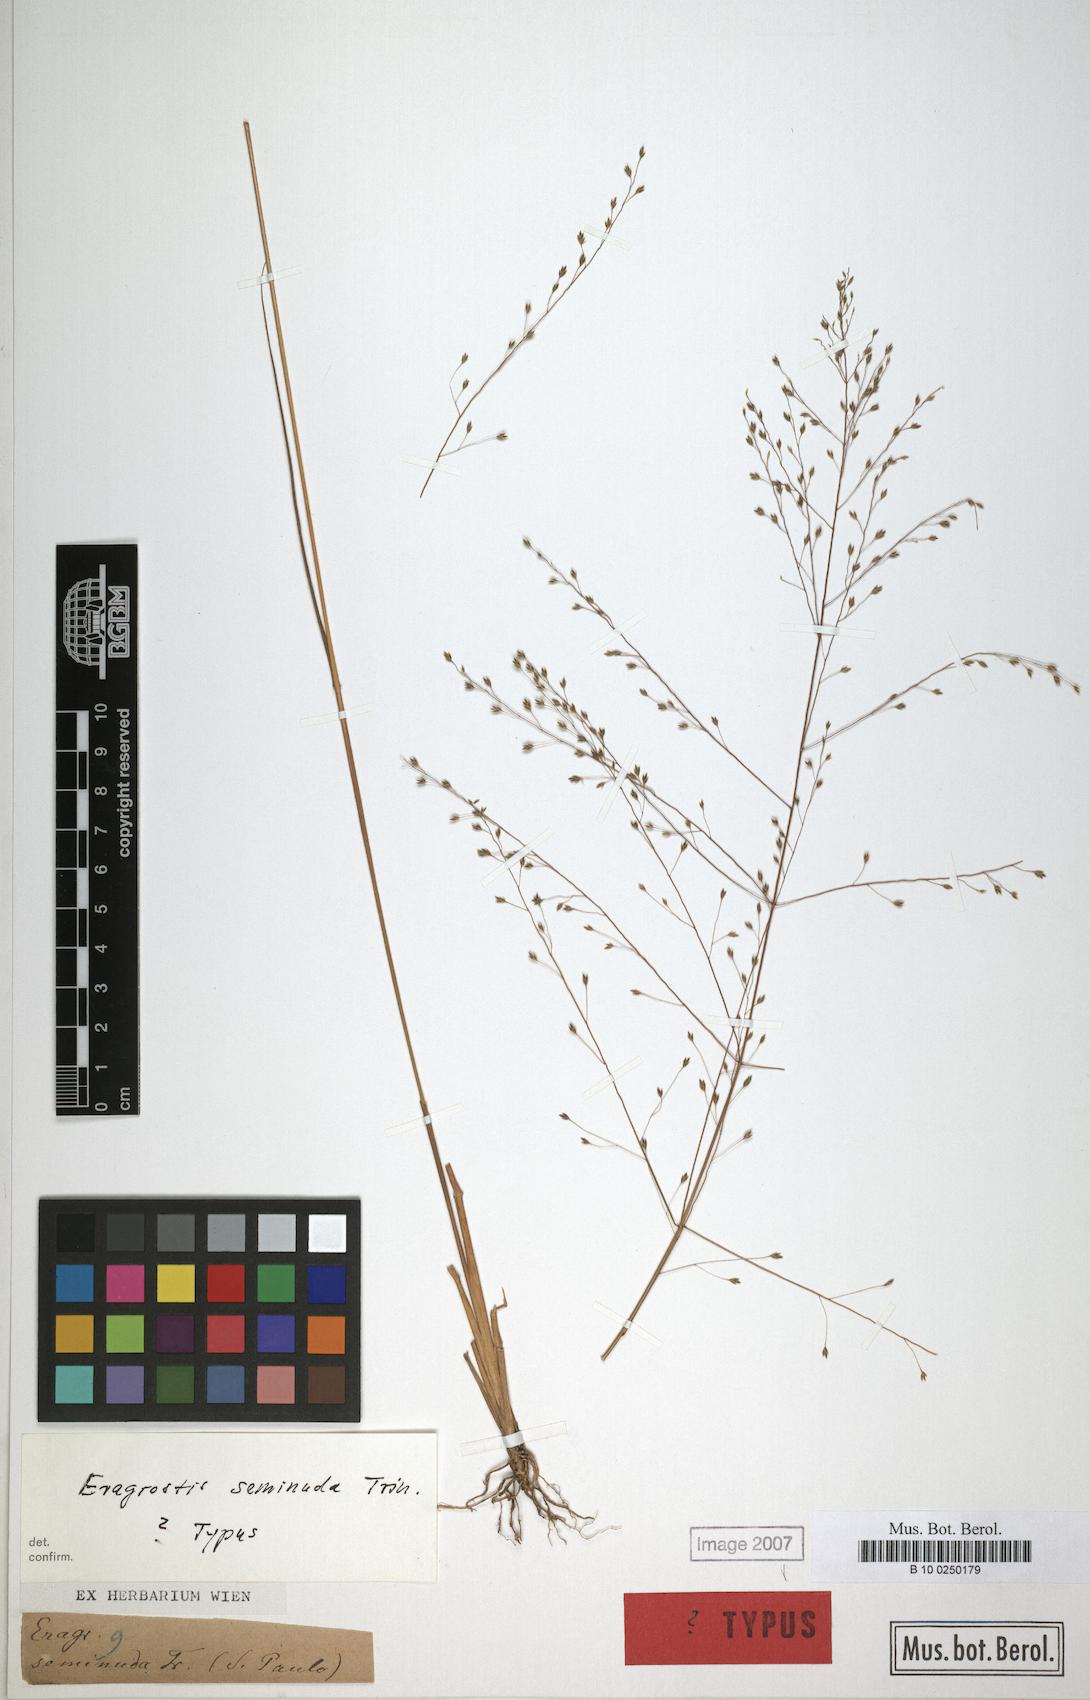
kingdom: Plantae
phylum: Tracheophyta
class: Liliopsida
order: Poales
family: Poaceae
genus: Eragrostis
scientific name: Eragrostis seminuda
